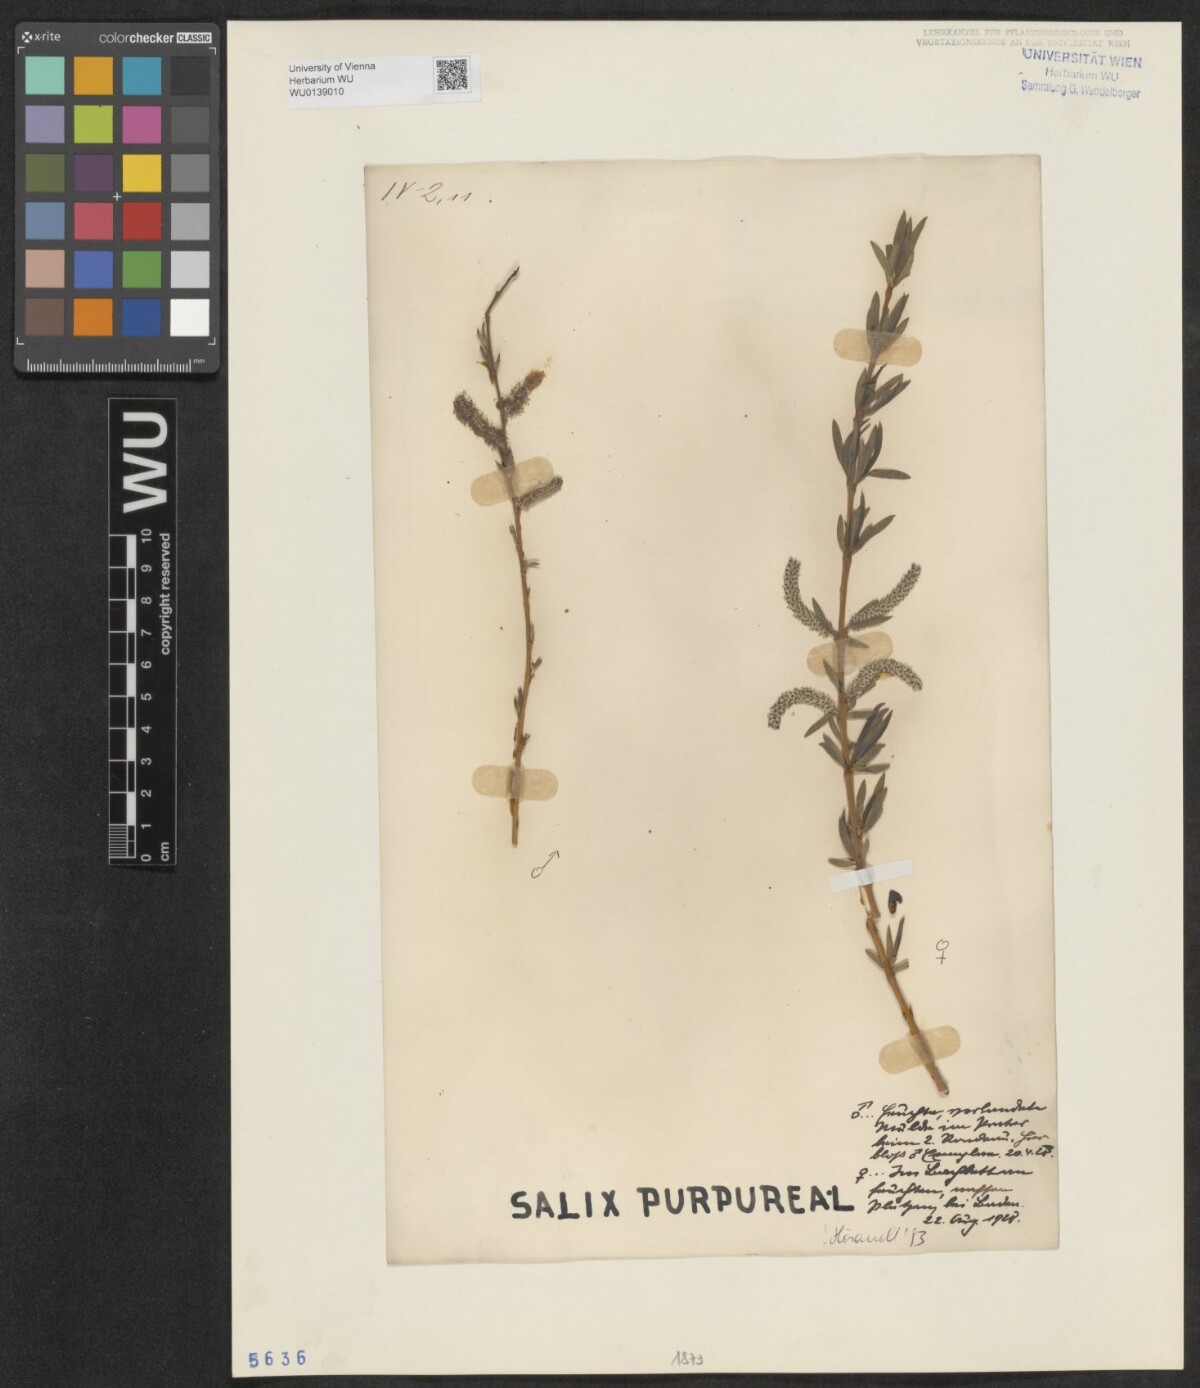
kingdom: Plantae
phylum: Tracheophyta
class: Magnoliopsida
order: Malpighiales
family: Salicaceae
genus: Salix
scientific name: Salix purpurea
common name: Purple willow
